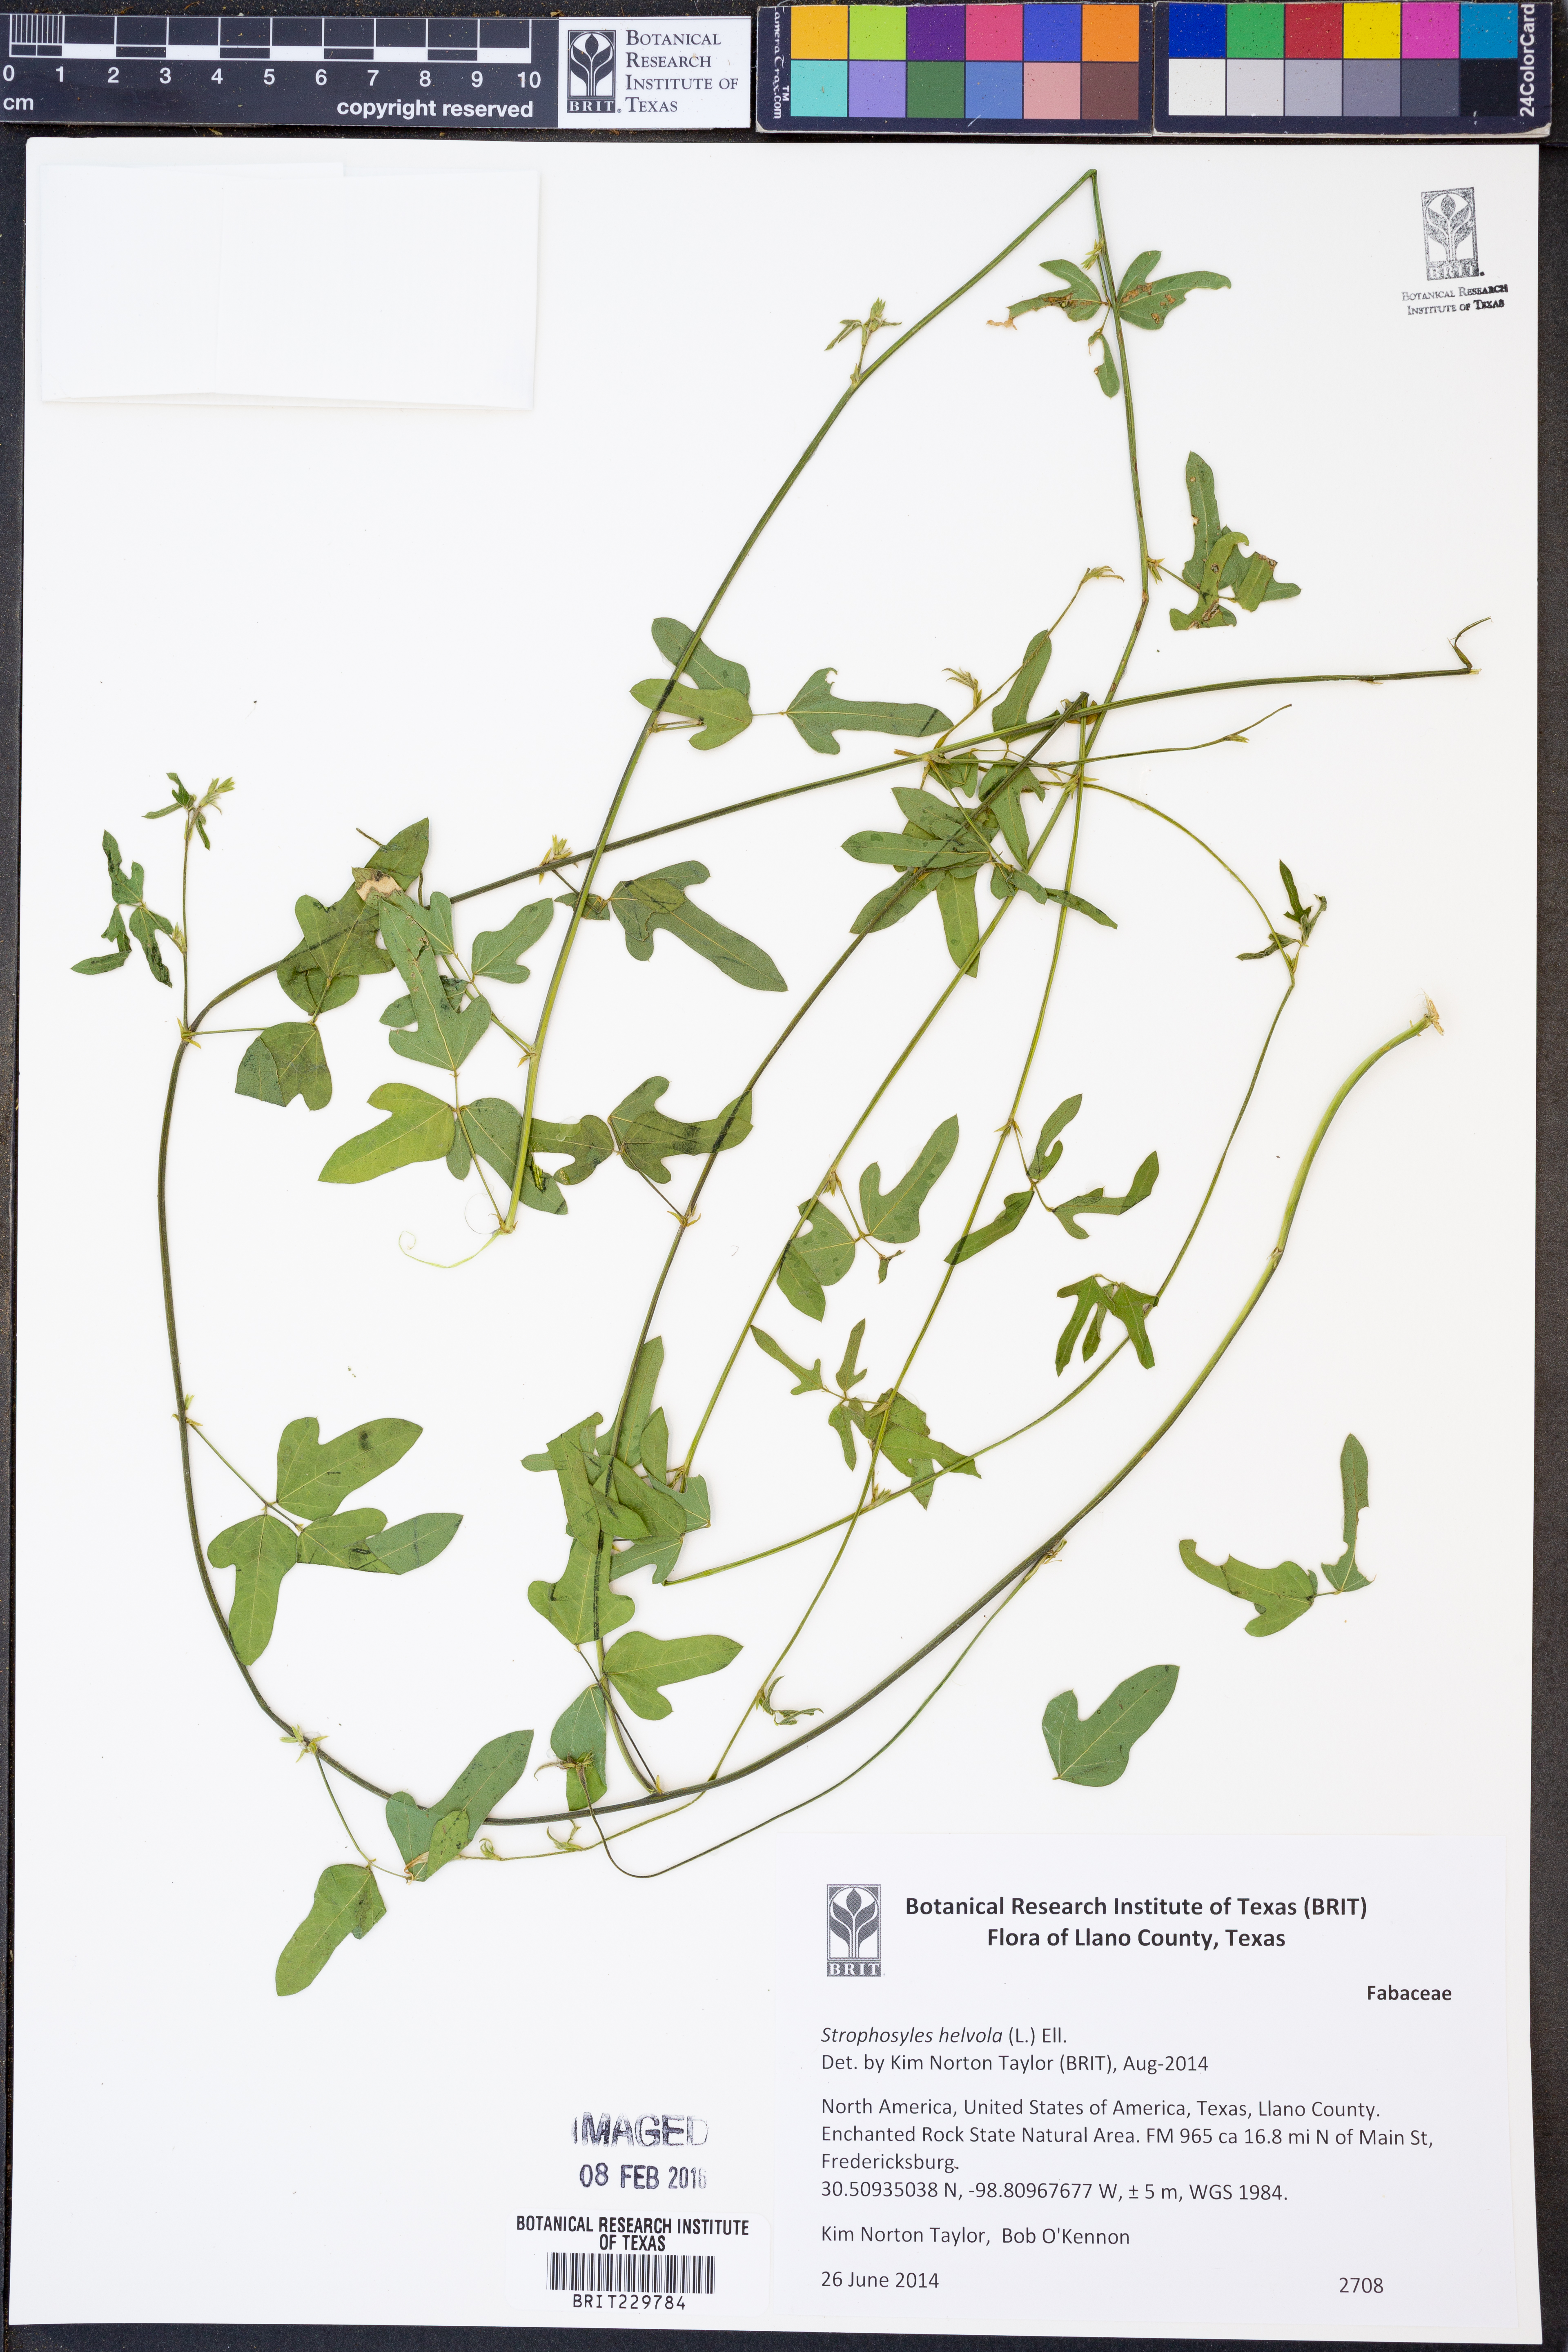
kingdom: Plantae
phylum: Tracheophyta
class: Magnoliopsida
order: Fabales
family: Fabaceae
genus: Strophostyles
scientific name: Strophostyles helvola
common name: Trailing wild bean
